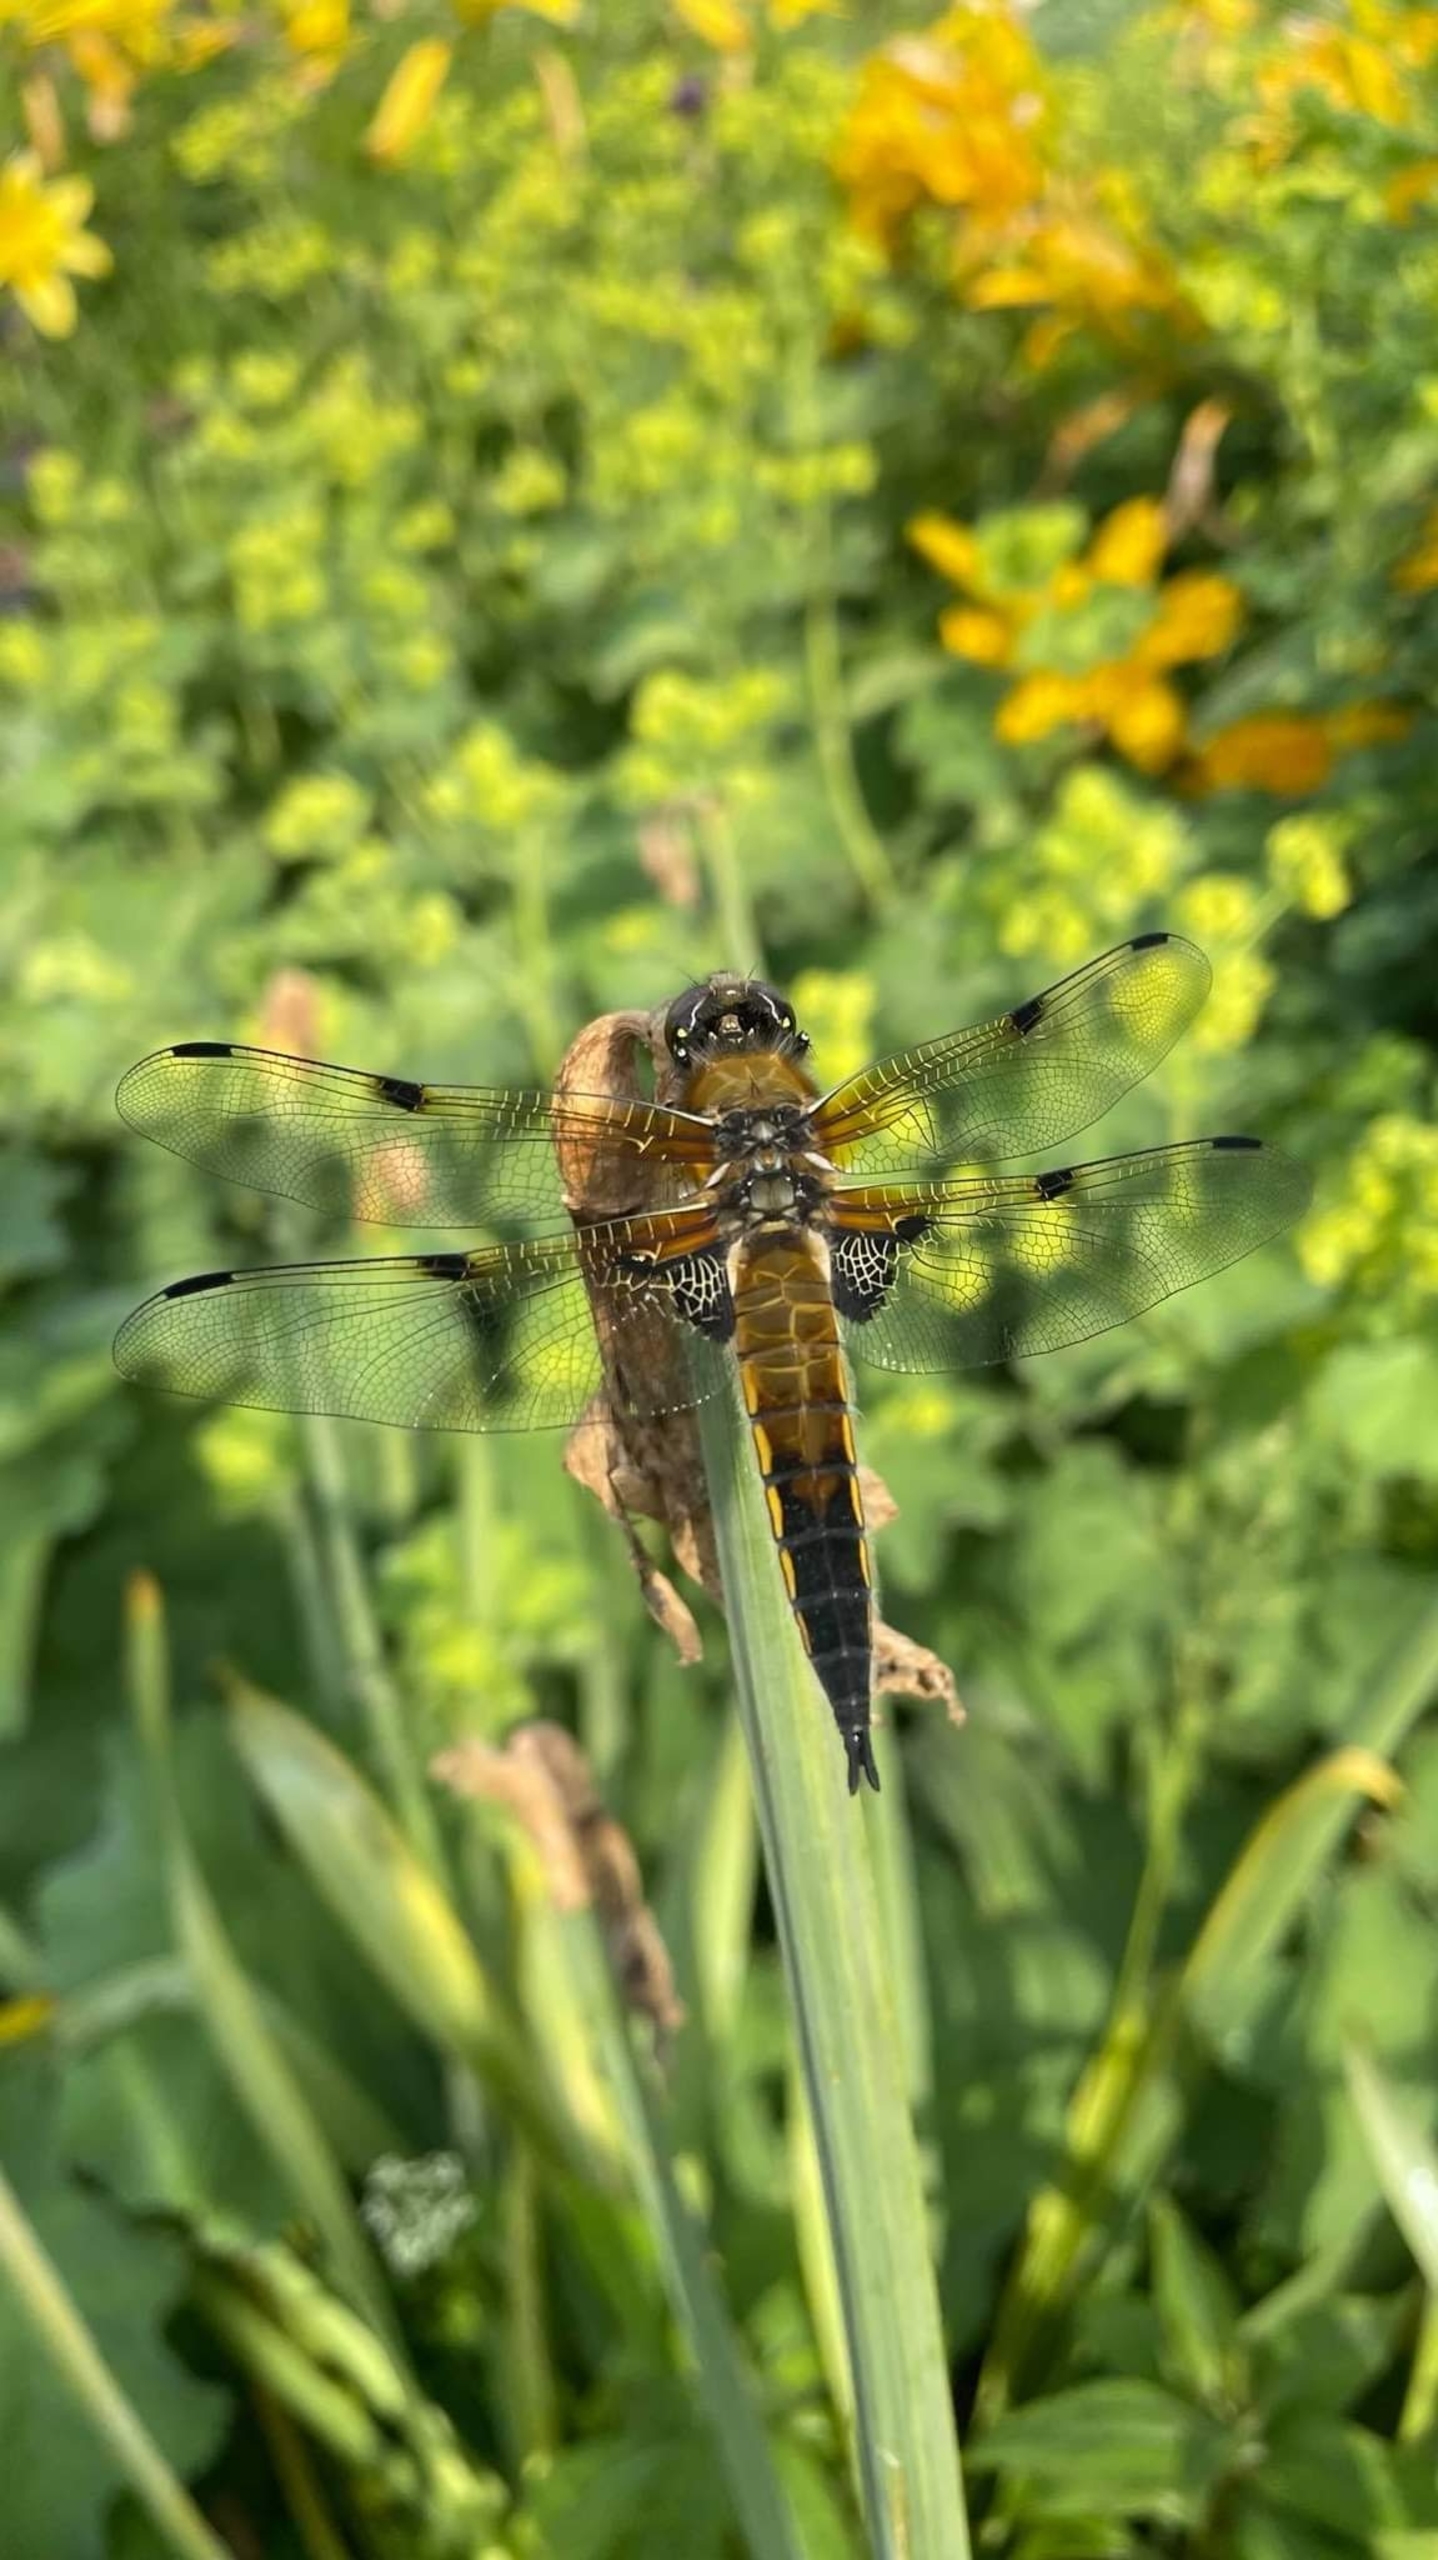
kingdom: Animalia
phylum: Arthropoda
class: Insecta
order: Odonata
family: Libellulidae
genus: Libellula
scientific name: Libellula quadrimaculata
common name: Fireplettet libel
